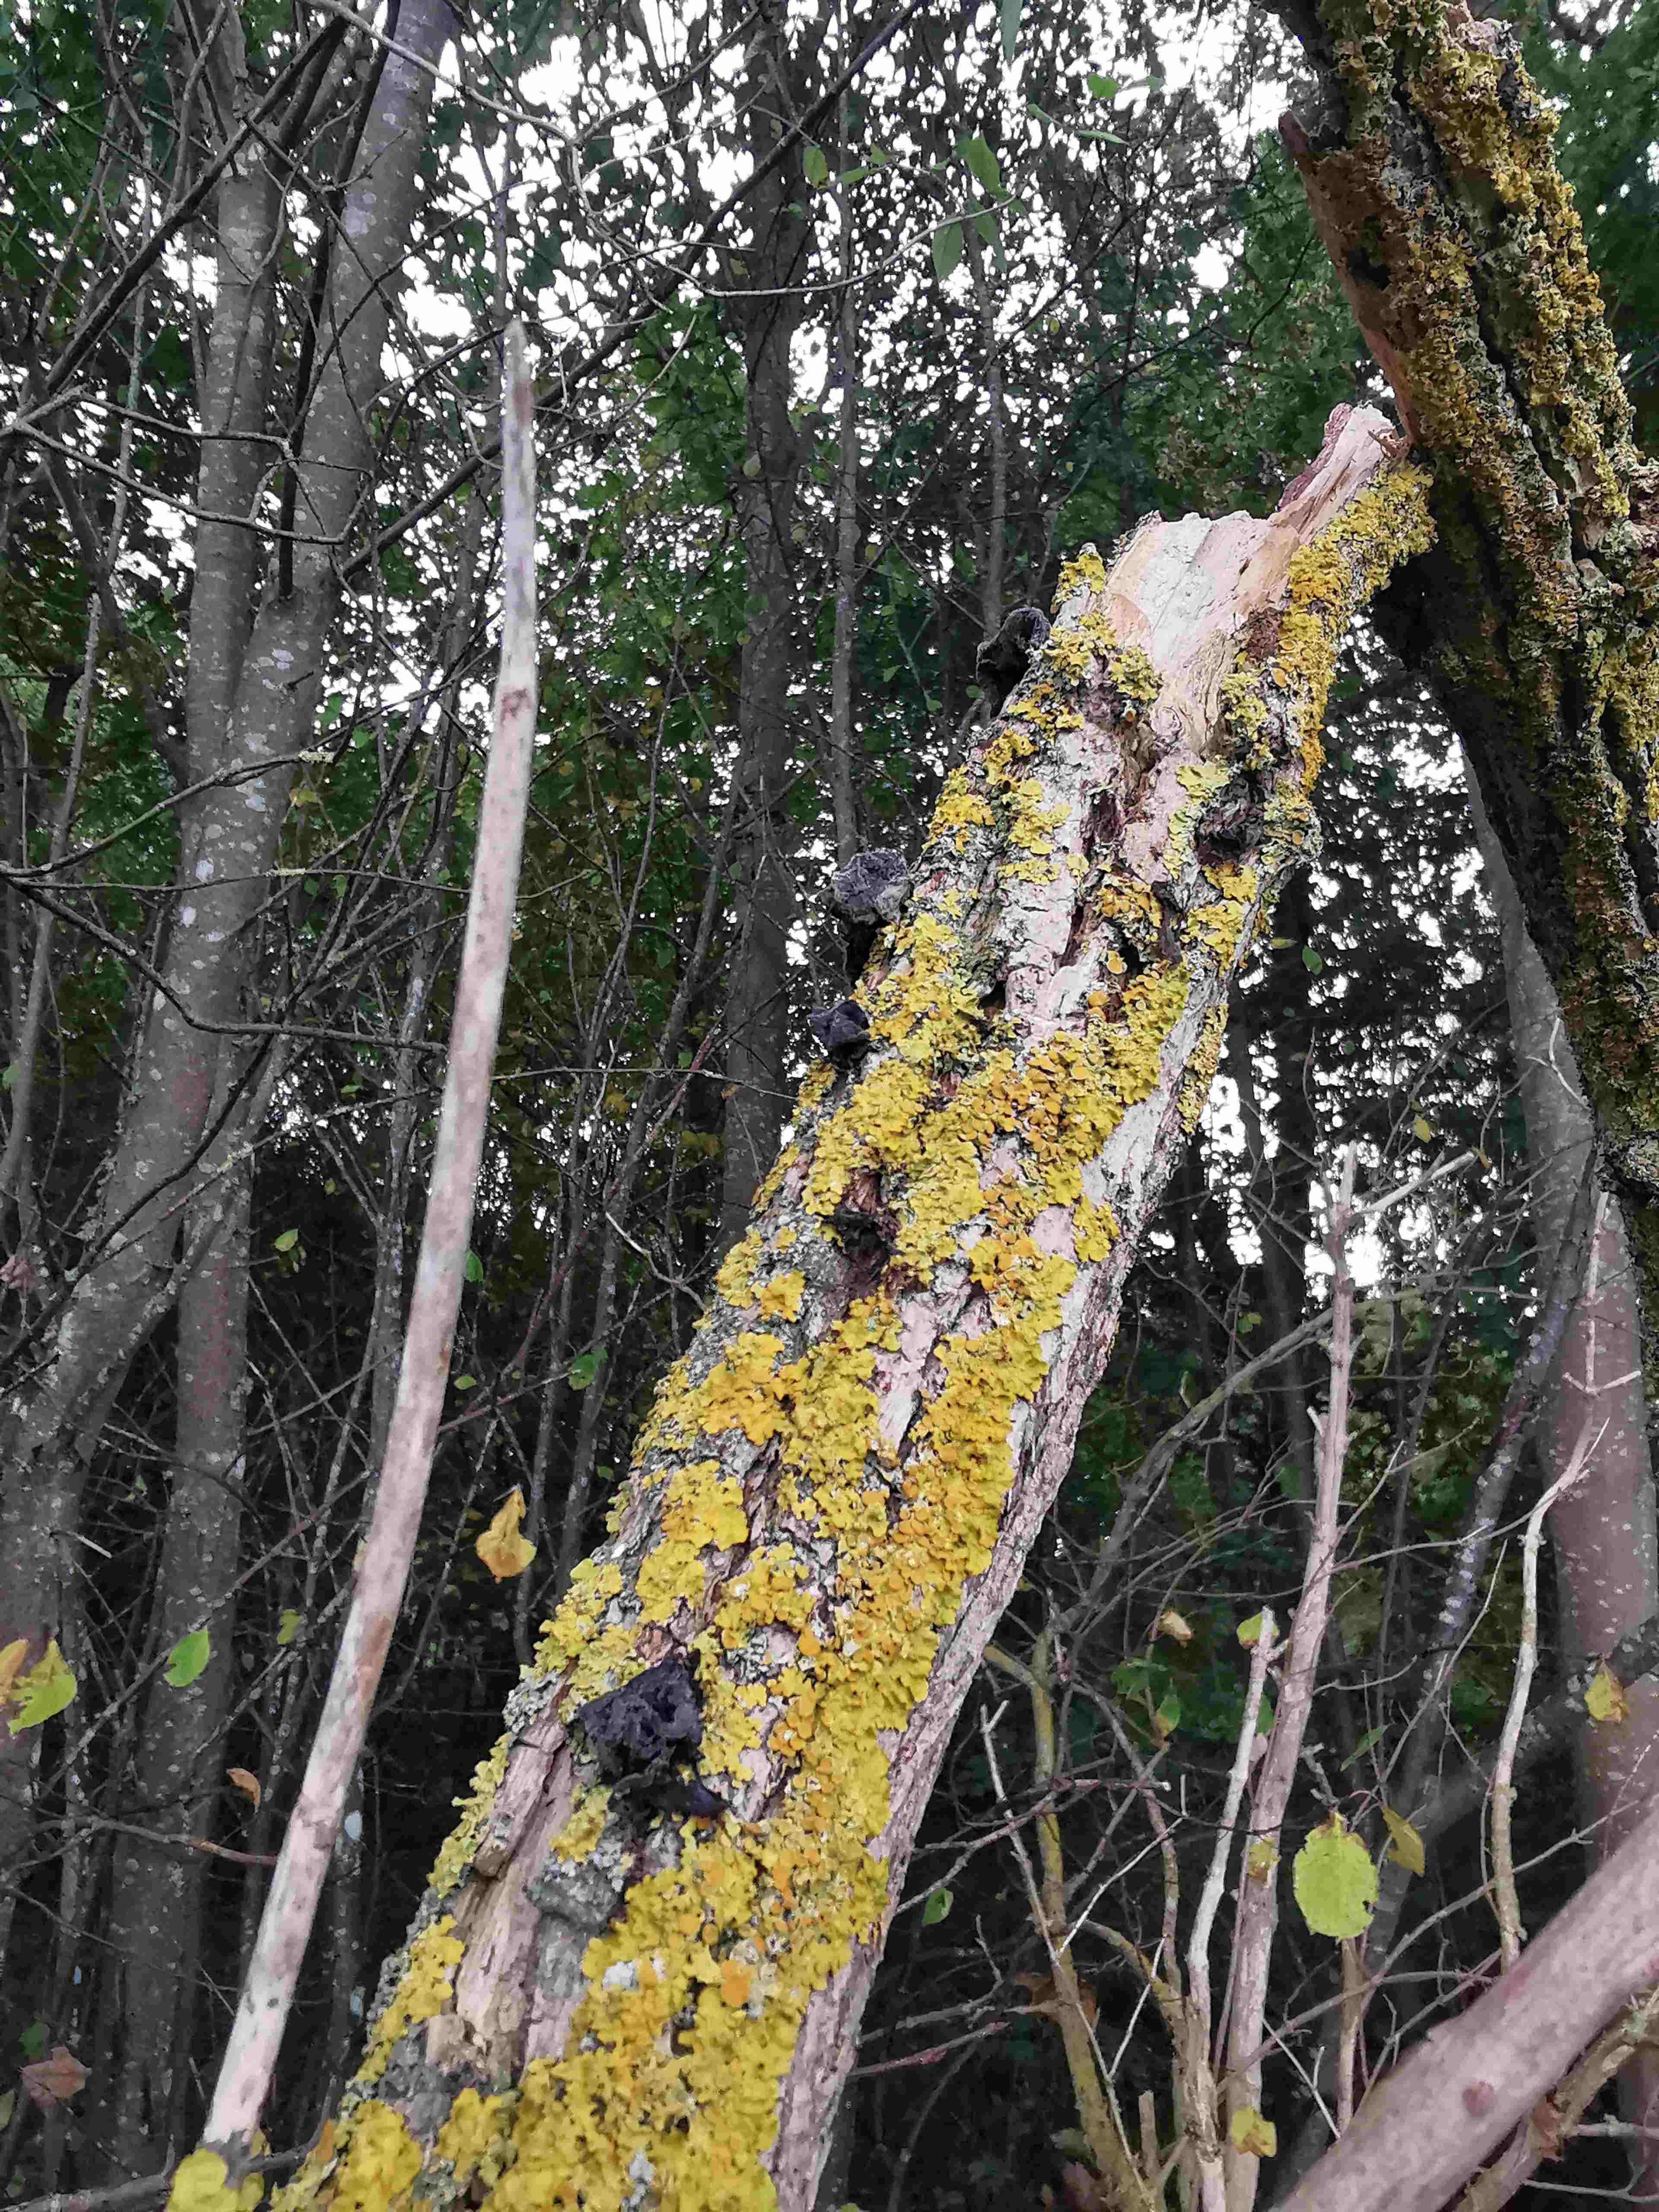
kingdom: Fungi
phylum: Basidiomycota
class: Agaricomycetes
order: Auriculariales
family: Auriculariaceae
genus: Auricularia
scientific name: Auricularia auricula-judae
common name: almindelig judasøre
